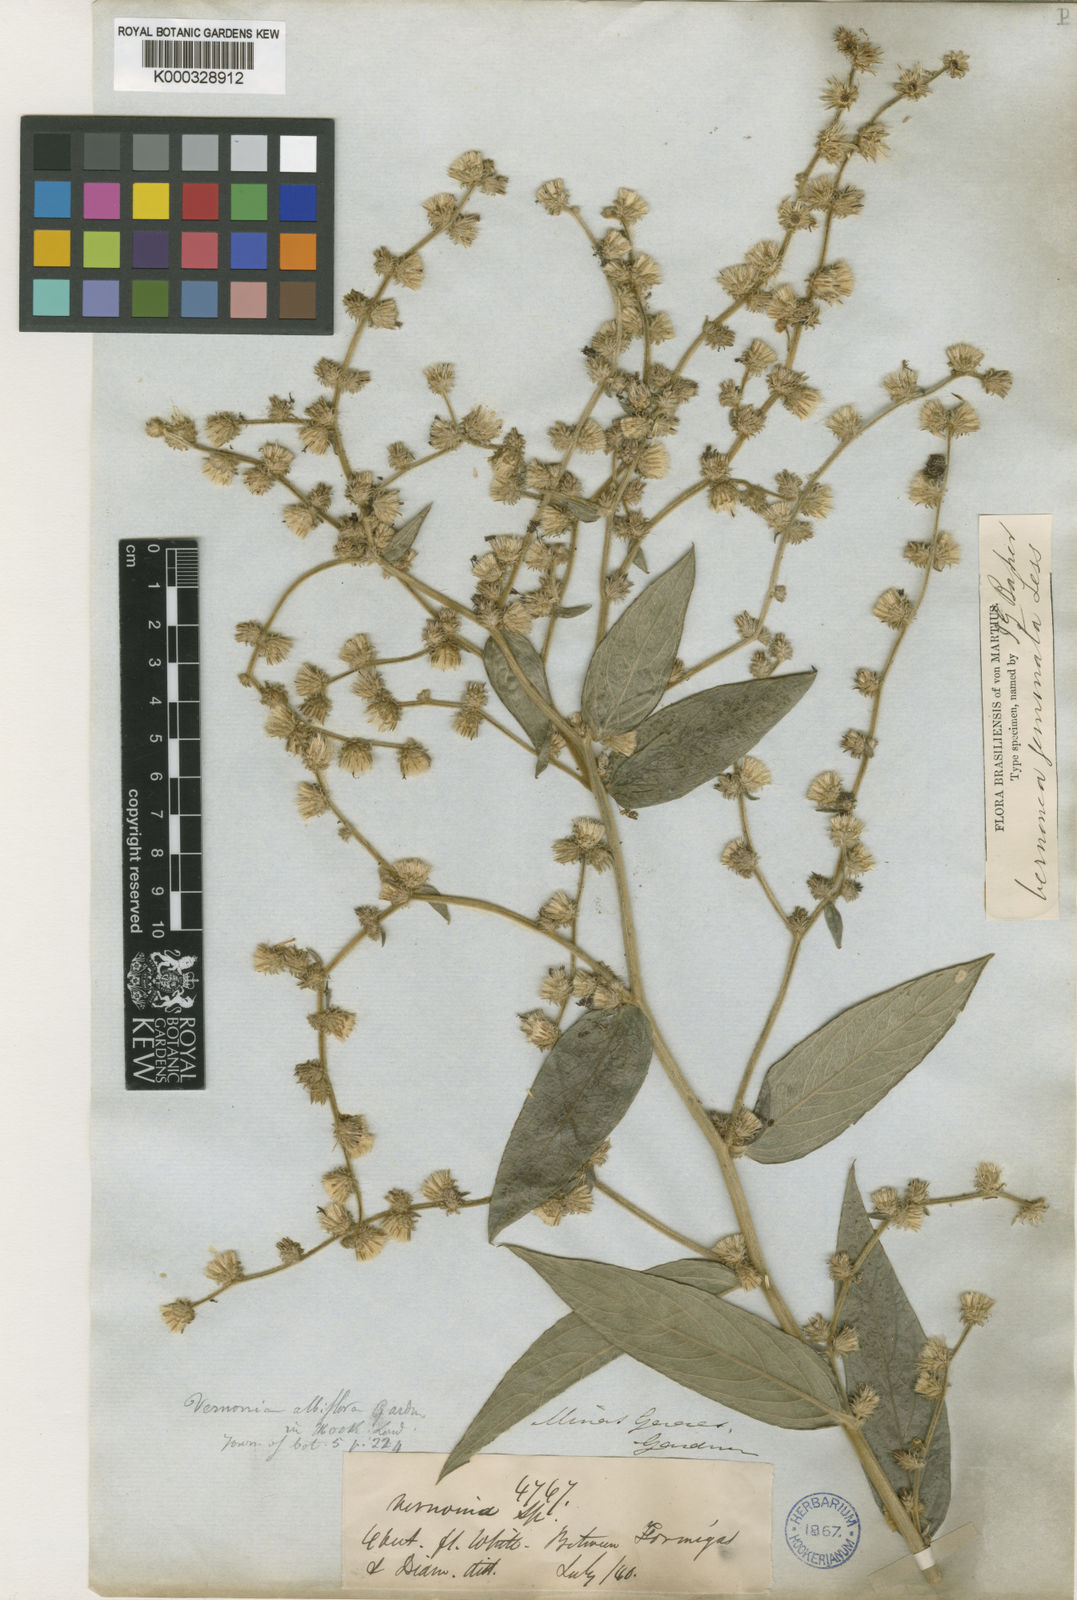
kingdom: Plantae
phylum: Tracheophyta
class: Magnoliopsida
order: Asterales
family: Asteraceae
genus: Vernonia
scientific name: Vernonia
